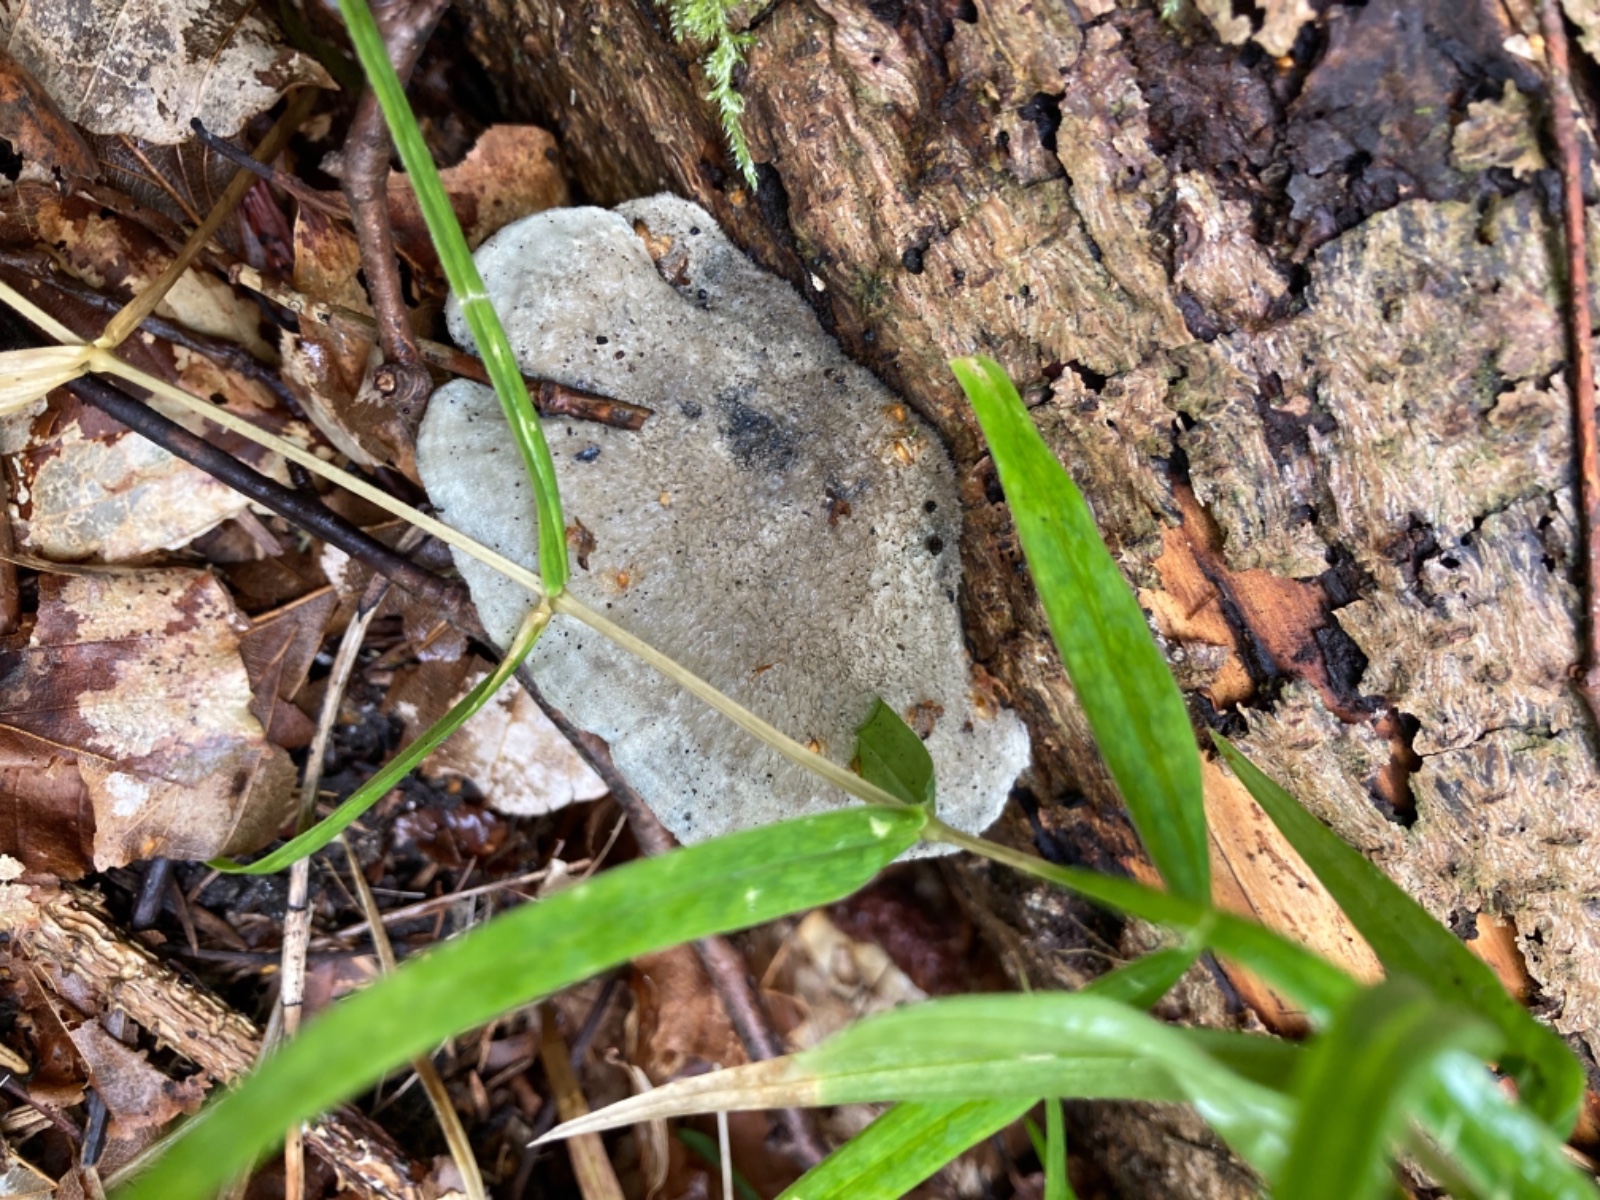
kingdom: Fungi
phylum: Basidiomycota
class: Agaricomycetes
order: Polyporales
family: Polyporaceae
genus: Cyanosporus
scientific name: Cyanosporus caesius
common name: blålig kødporesvamp
